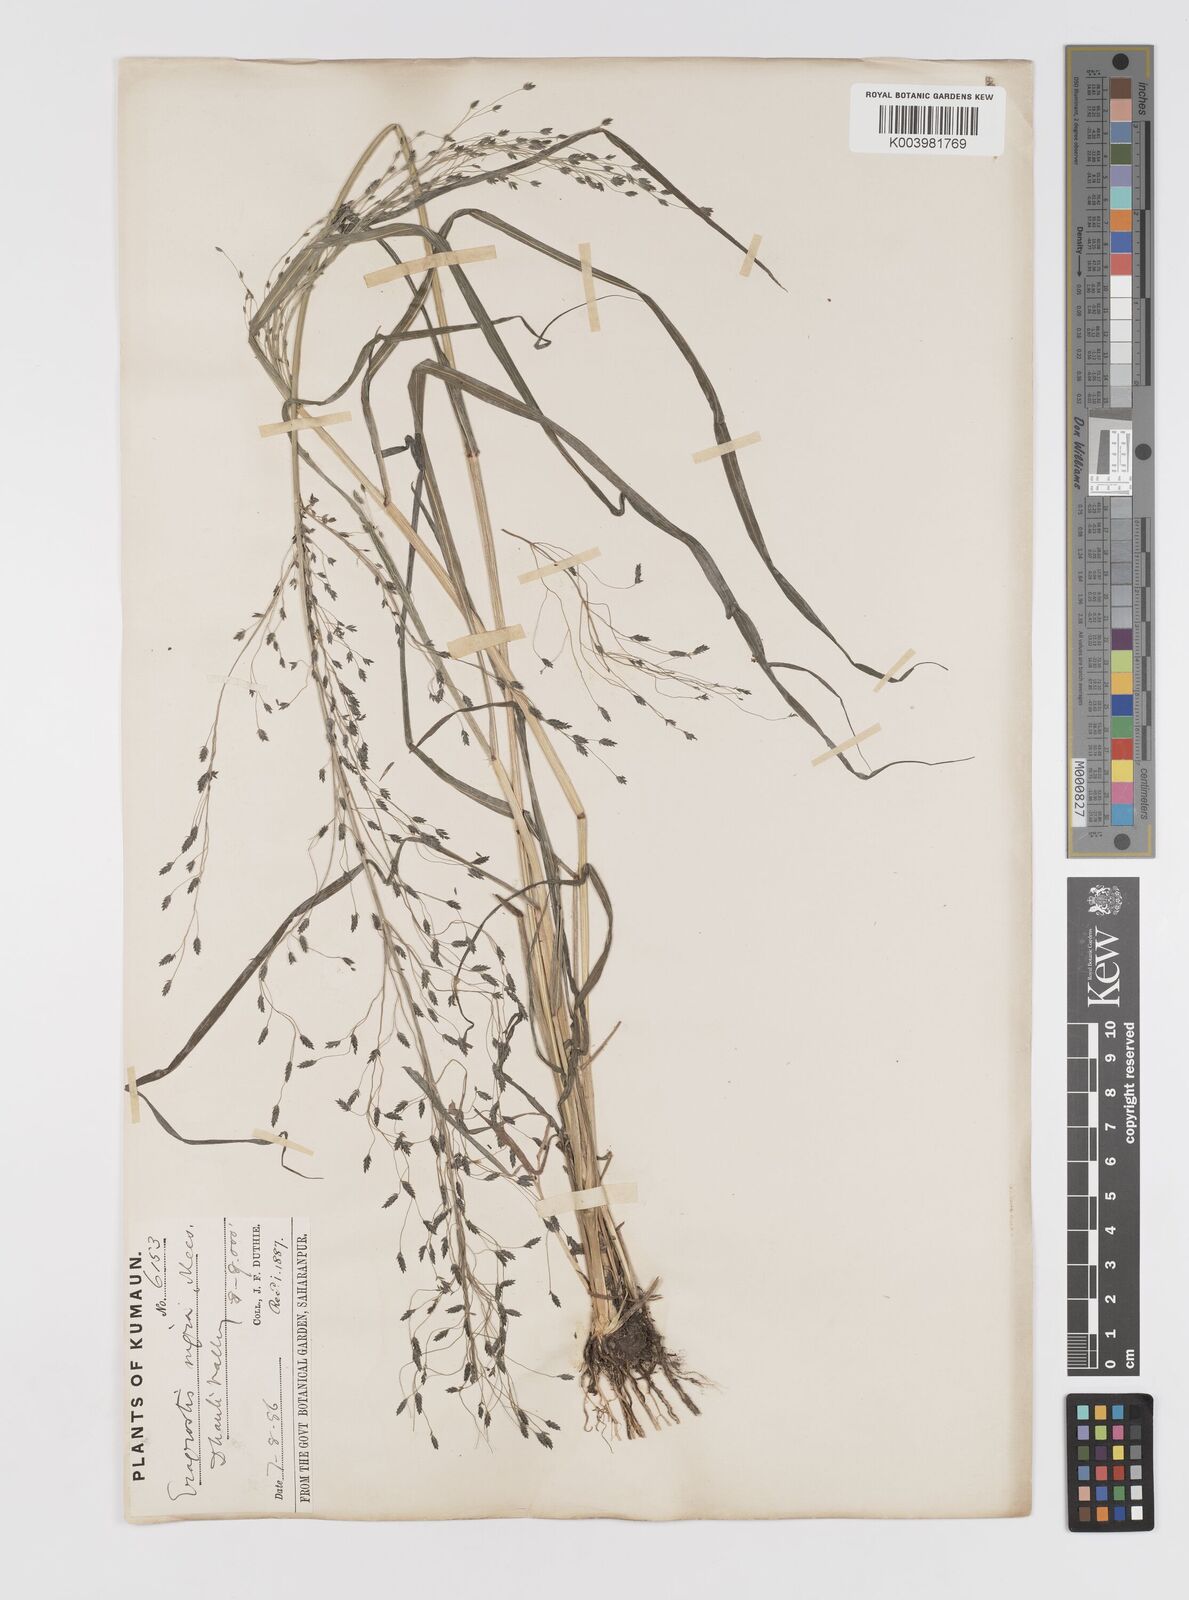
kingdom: Plantae
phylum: Tracheophyta
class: Liliopsida
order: Poales
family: Poaceae
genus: Eragrostis
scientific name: Eragrostis nigra
